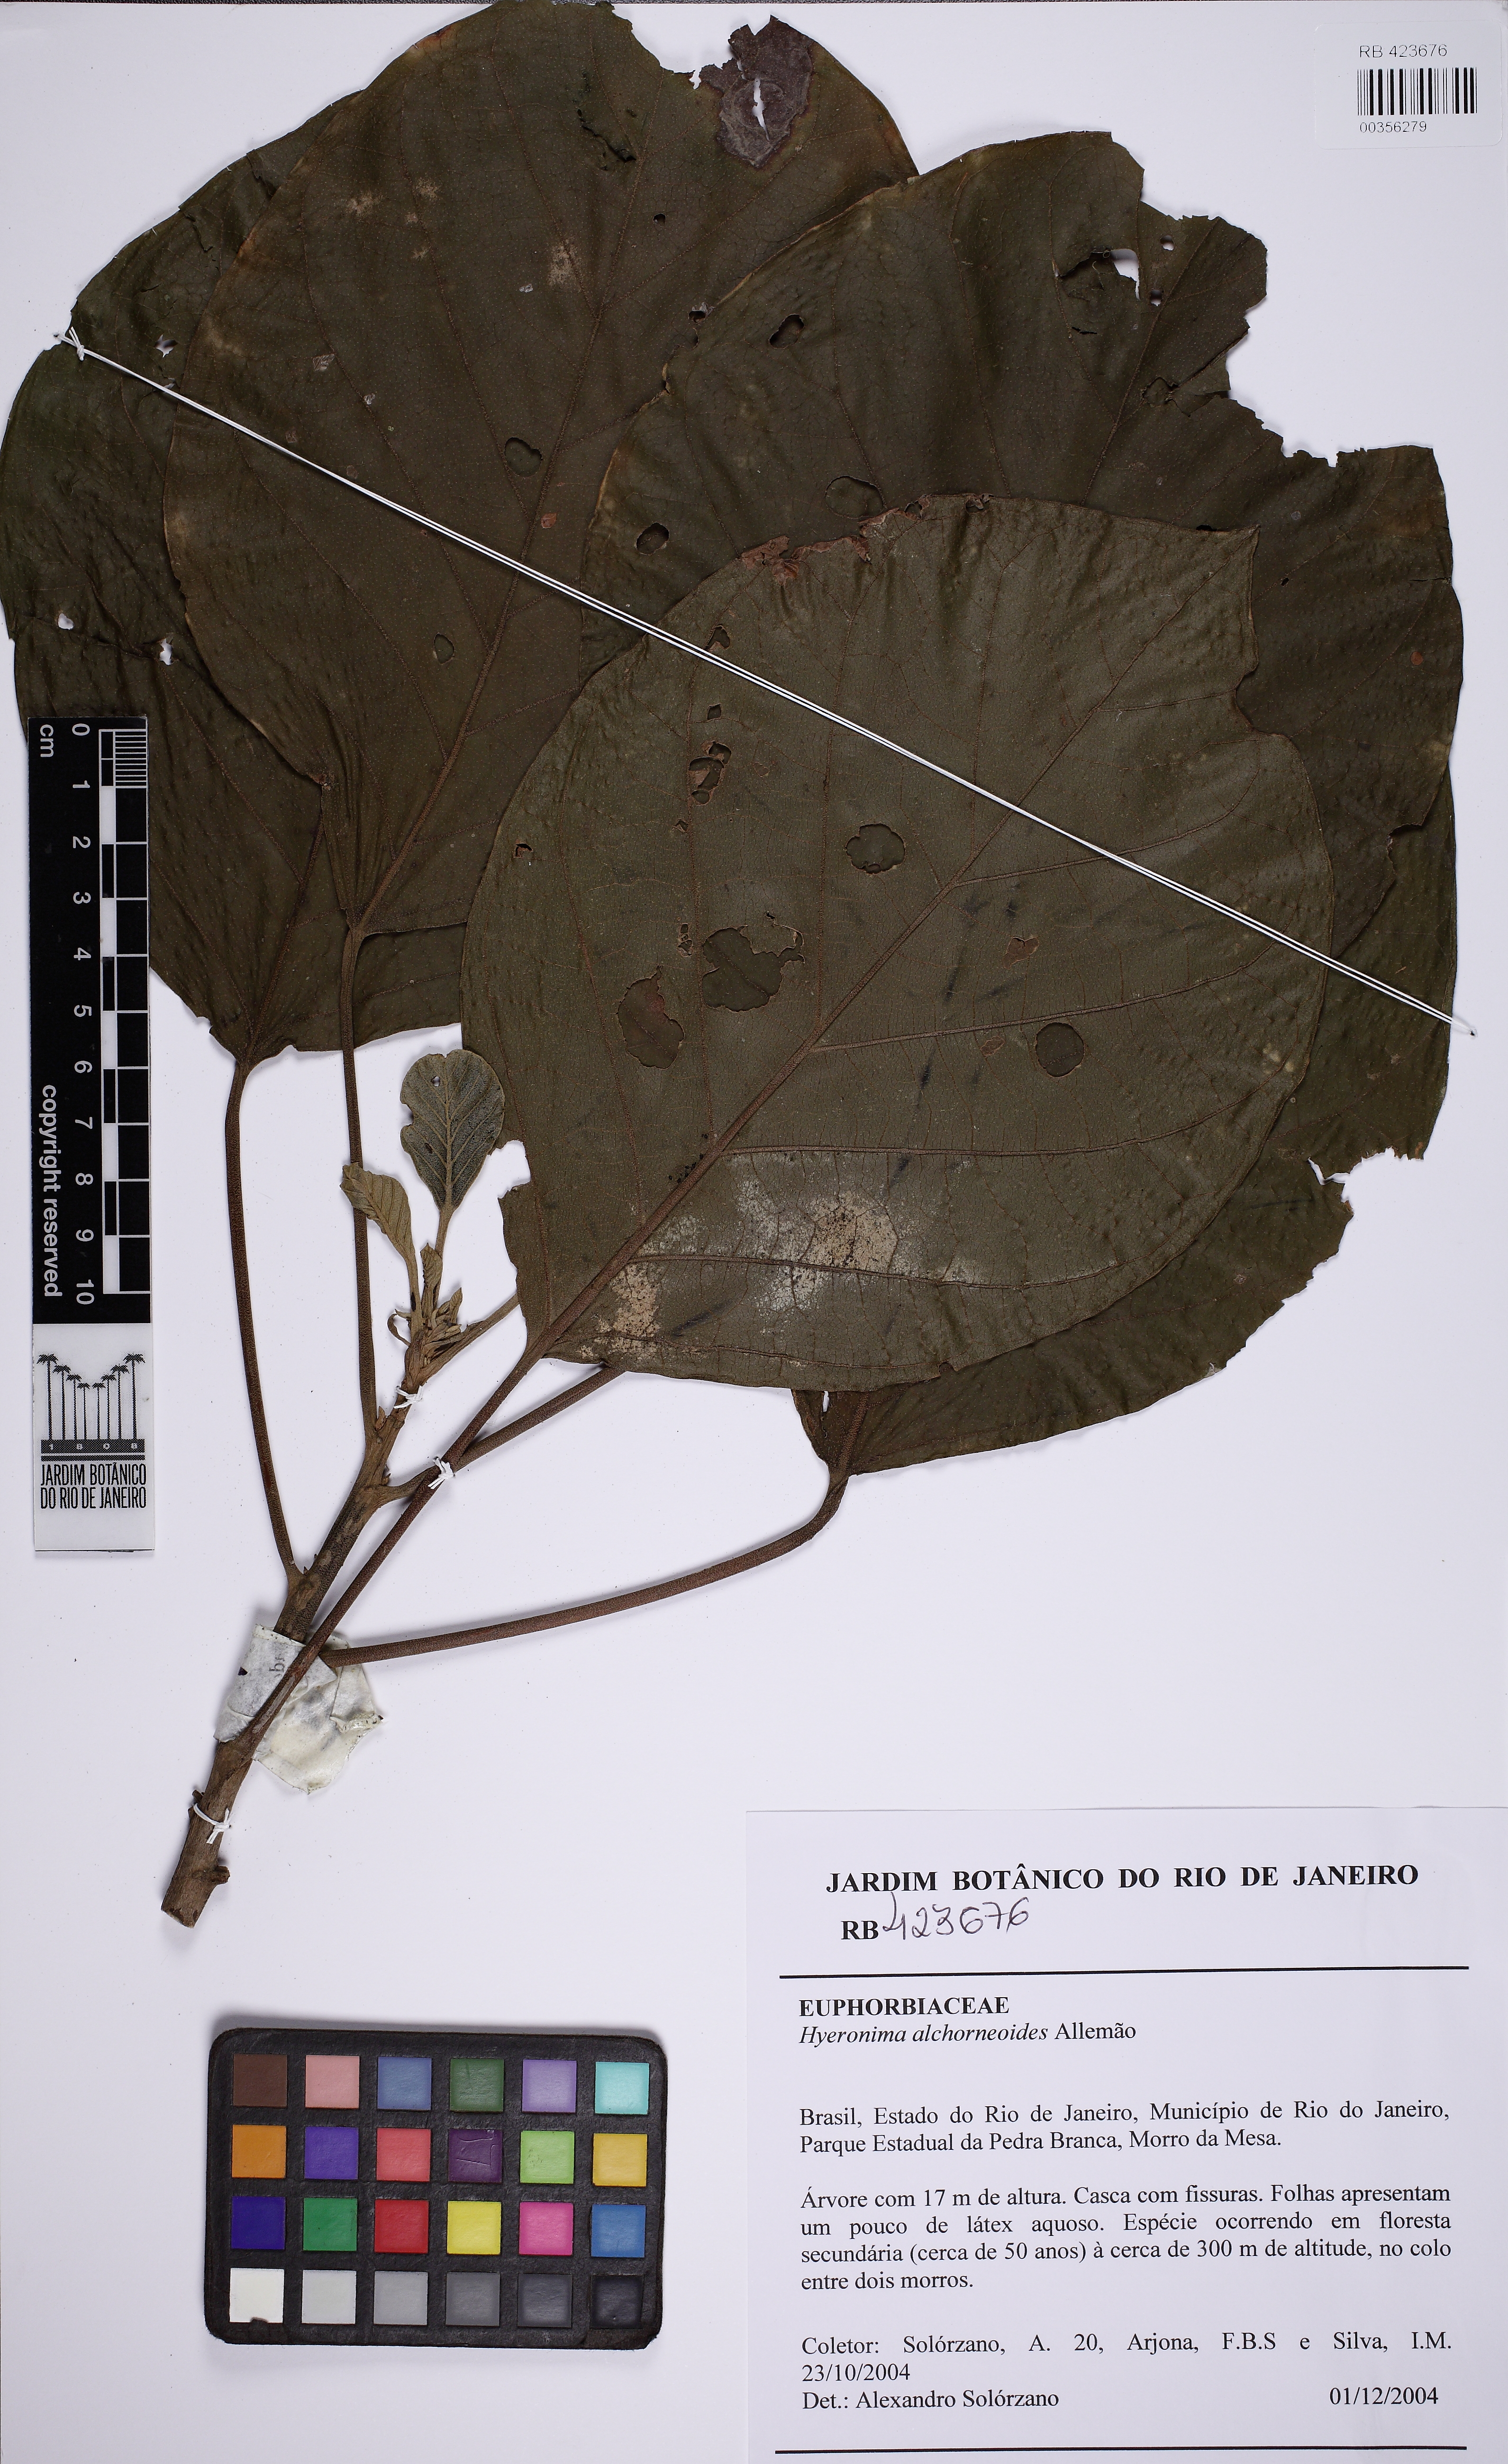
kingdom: Plantae
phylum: Tracheophyta
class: Magnoliopsida
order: Malpighiales
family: Phyllanthaceae
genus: Hieronyma
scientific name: Hieronyma alchorneoides
